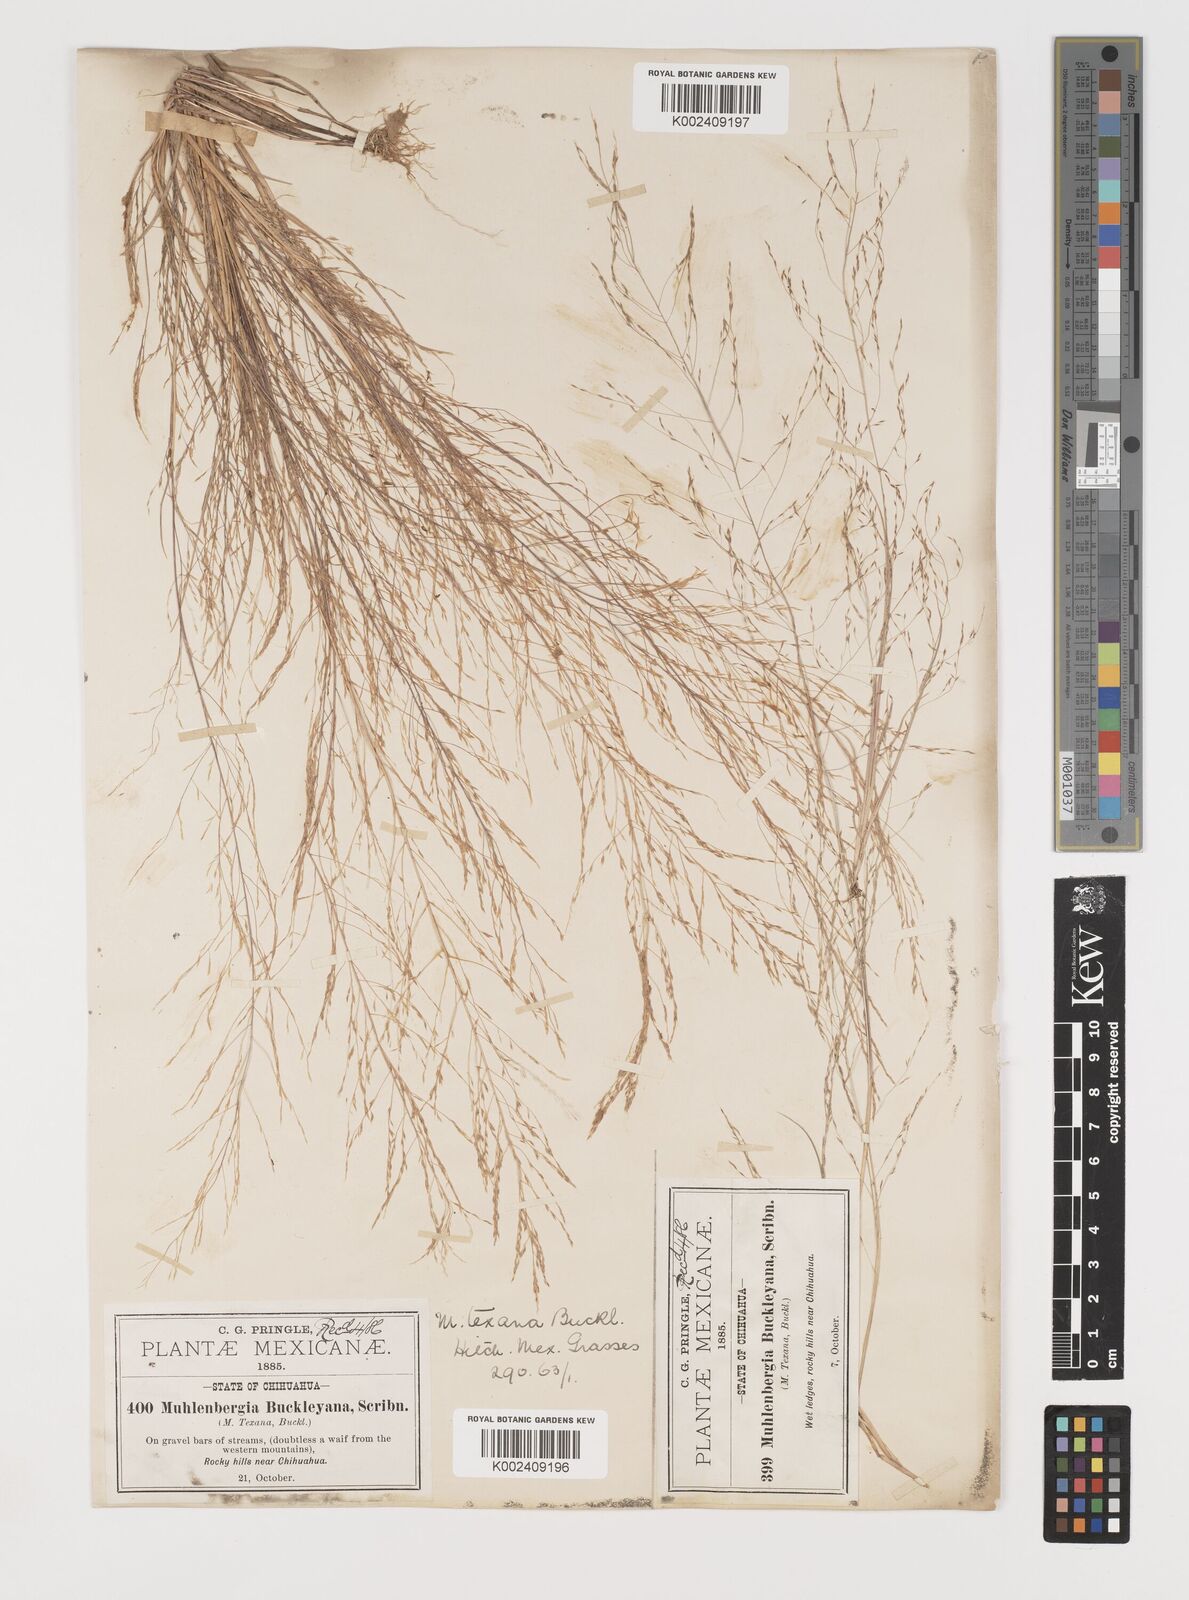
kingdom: Plantae
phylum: Tracheophyta
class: Liliopsida
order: Poales
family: Poaceae
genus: Muhlenbergia
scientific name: Muhlenbergia texana
